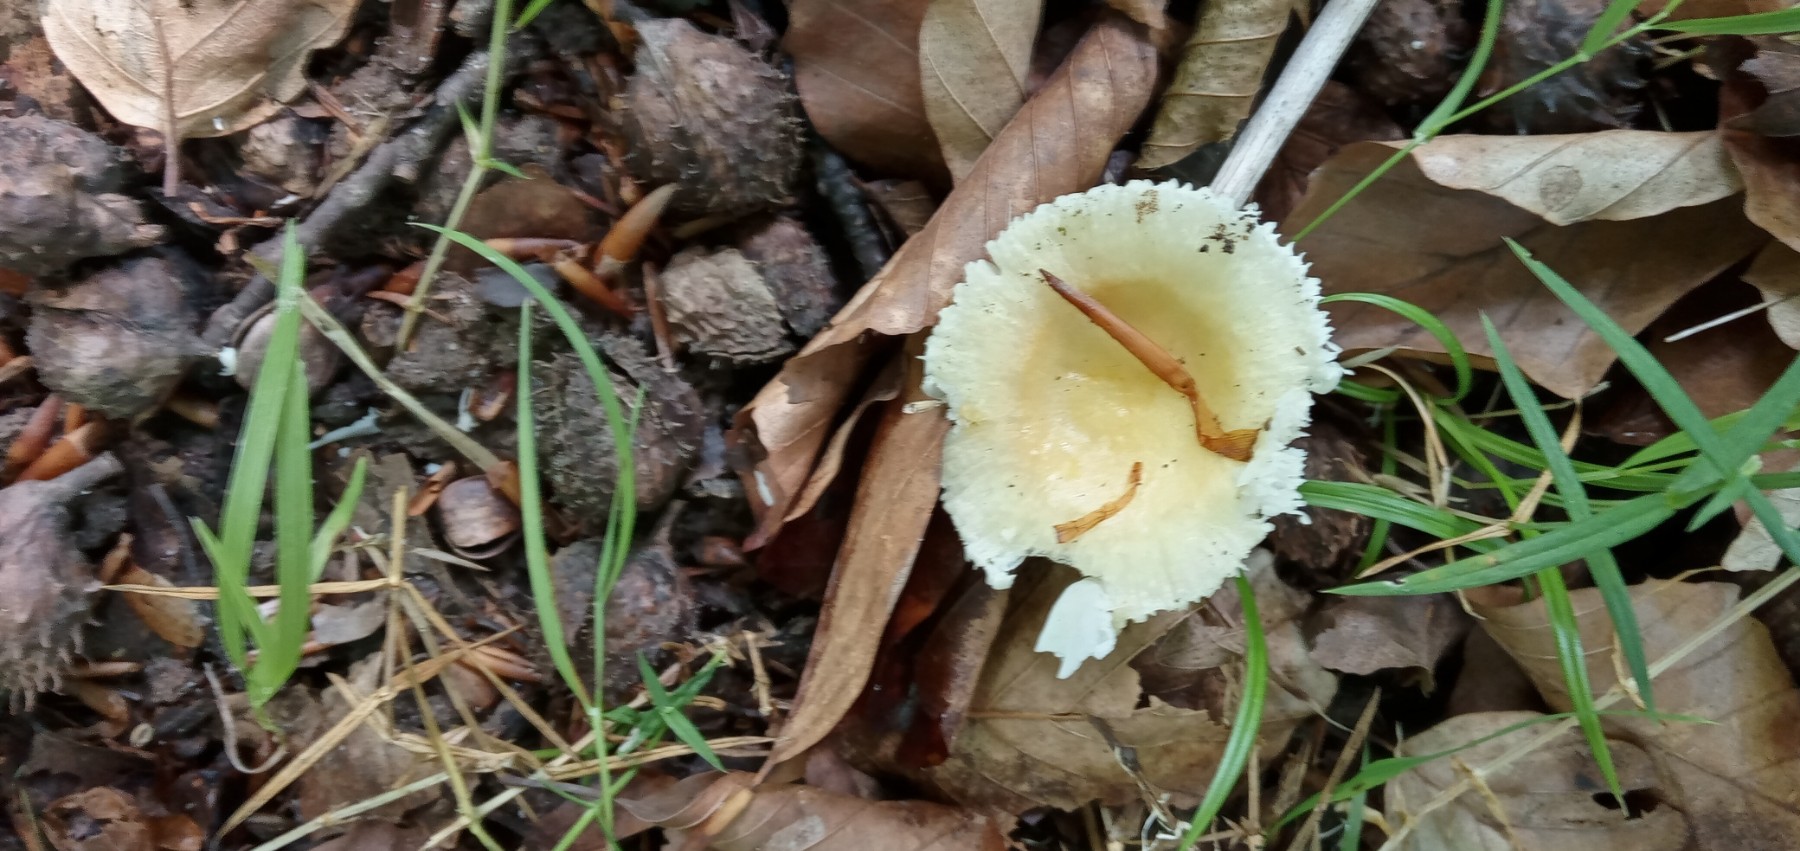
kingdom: Fungi
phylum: Basidiomycota
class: Agaricomycetes
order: Russulales
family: Russulaceae
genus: Russula
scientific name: Russula solaris
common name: sol-skørhat
